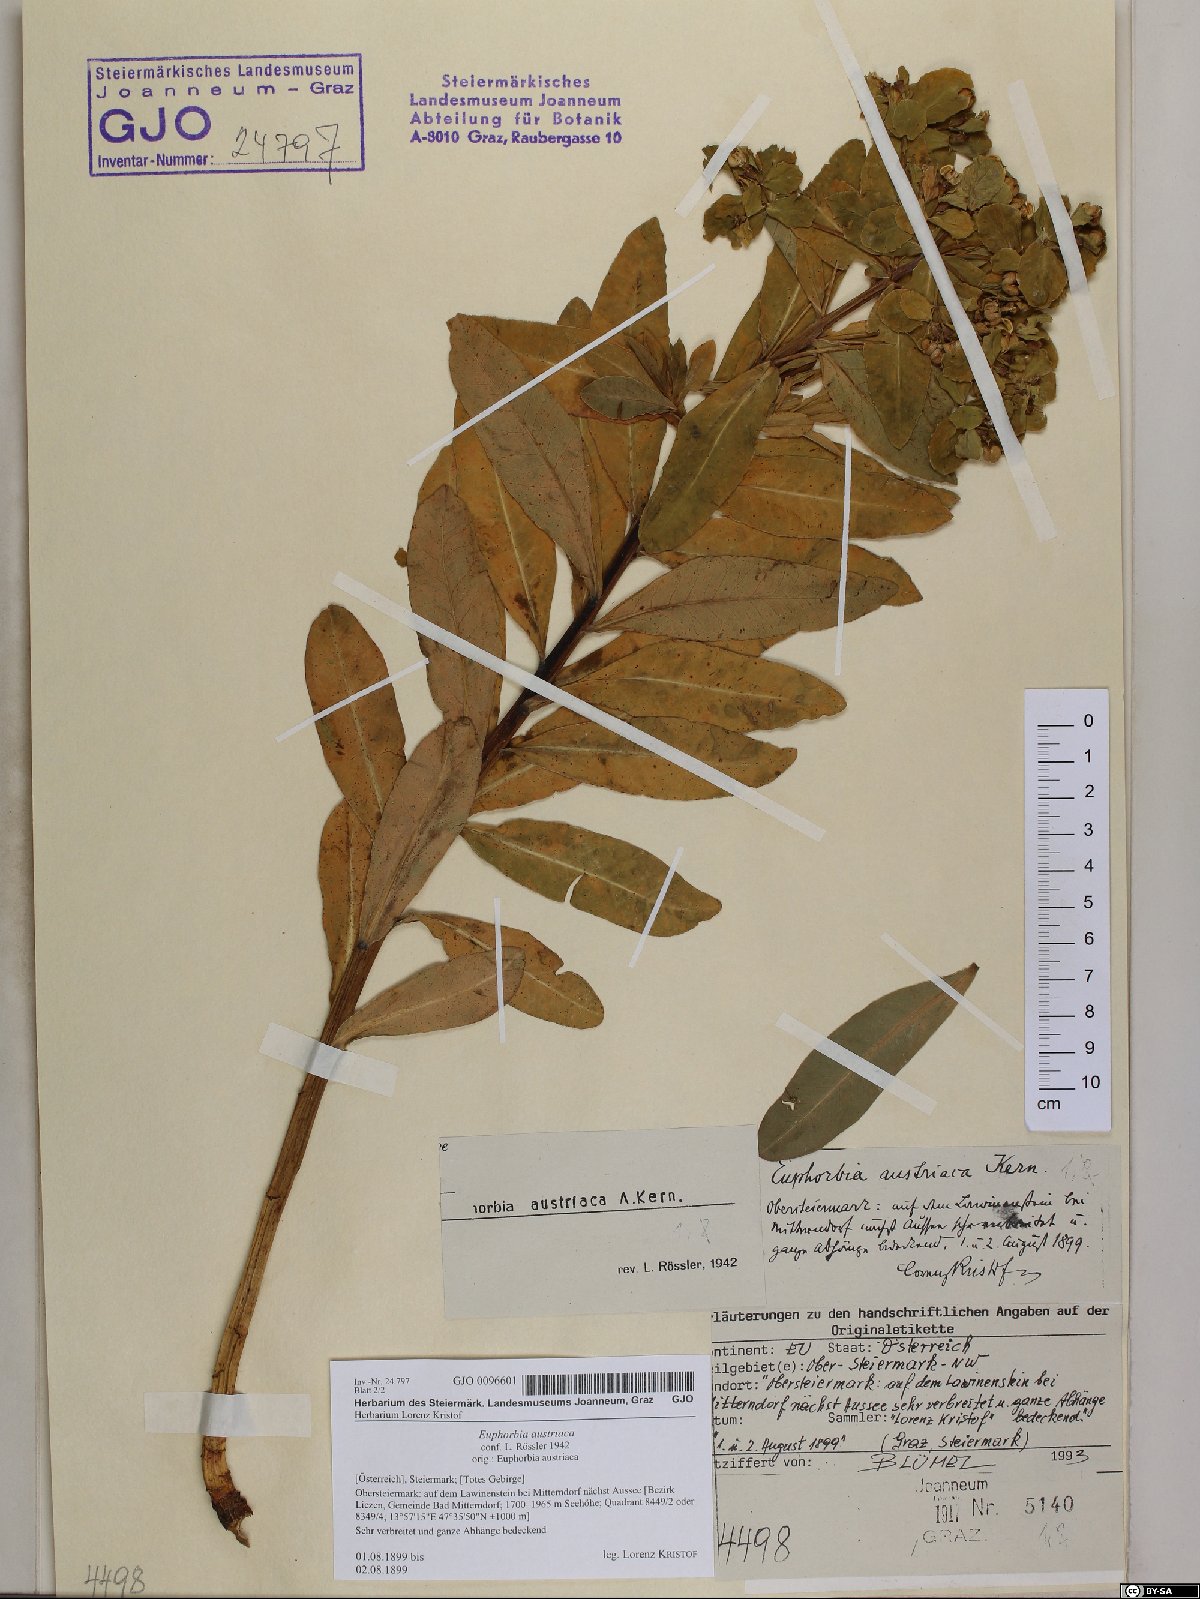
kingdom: Plantae
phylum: Tracheophyta
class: Magnoliopsida
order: Malpighiales
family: Euphorbiaceae
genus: Euphorbia
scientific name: Euphorbia austriaca
